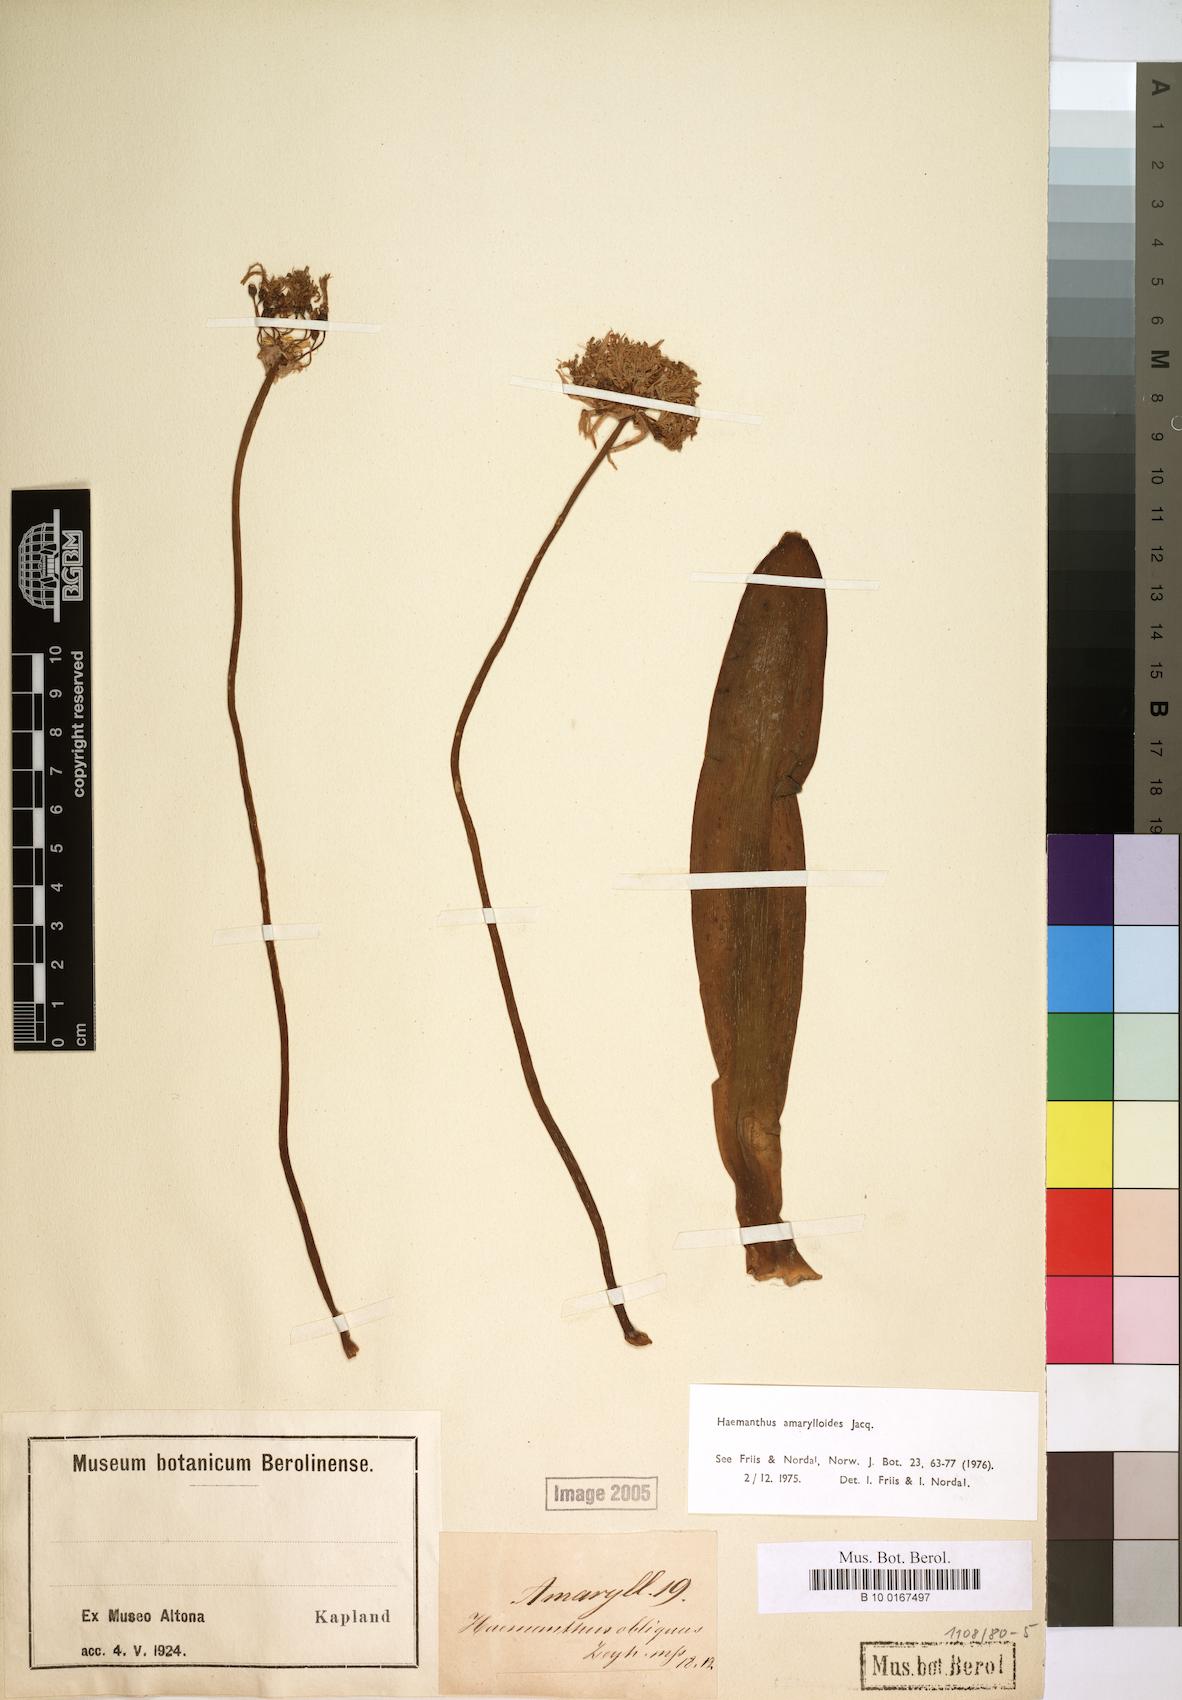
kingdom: Plantae
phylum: Tracheophyta
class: Liliopsida
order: Asparagales
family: Amaryllidaceae
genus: Haemanthus
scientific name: Haemanthus amarylloides
